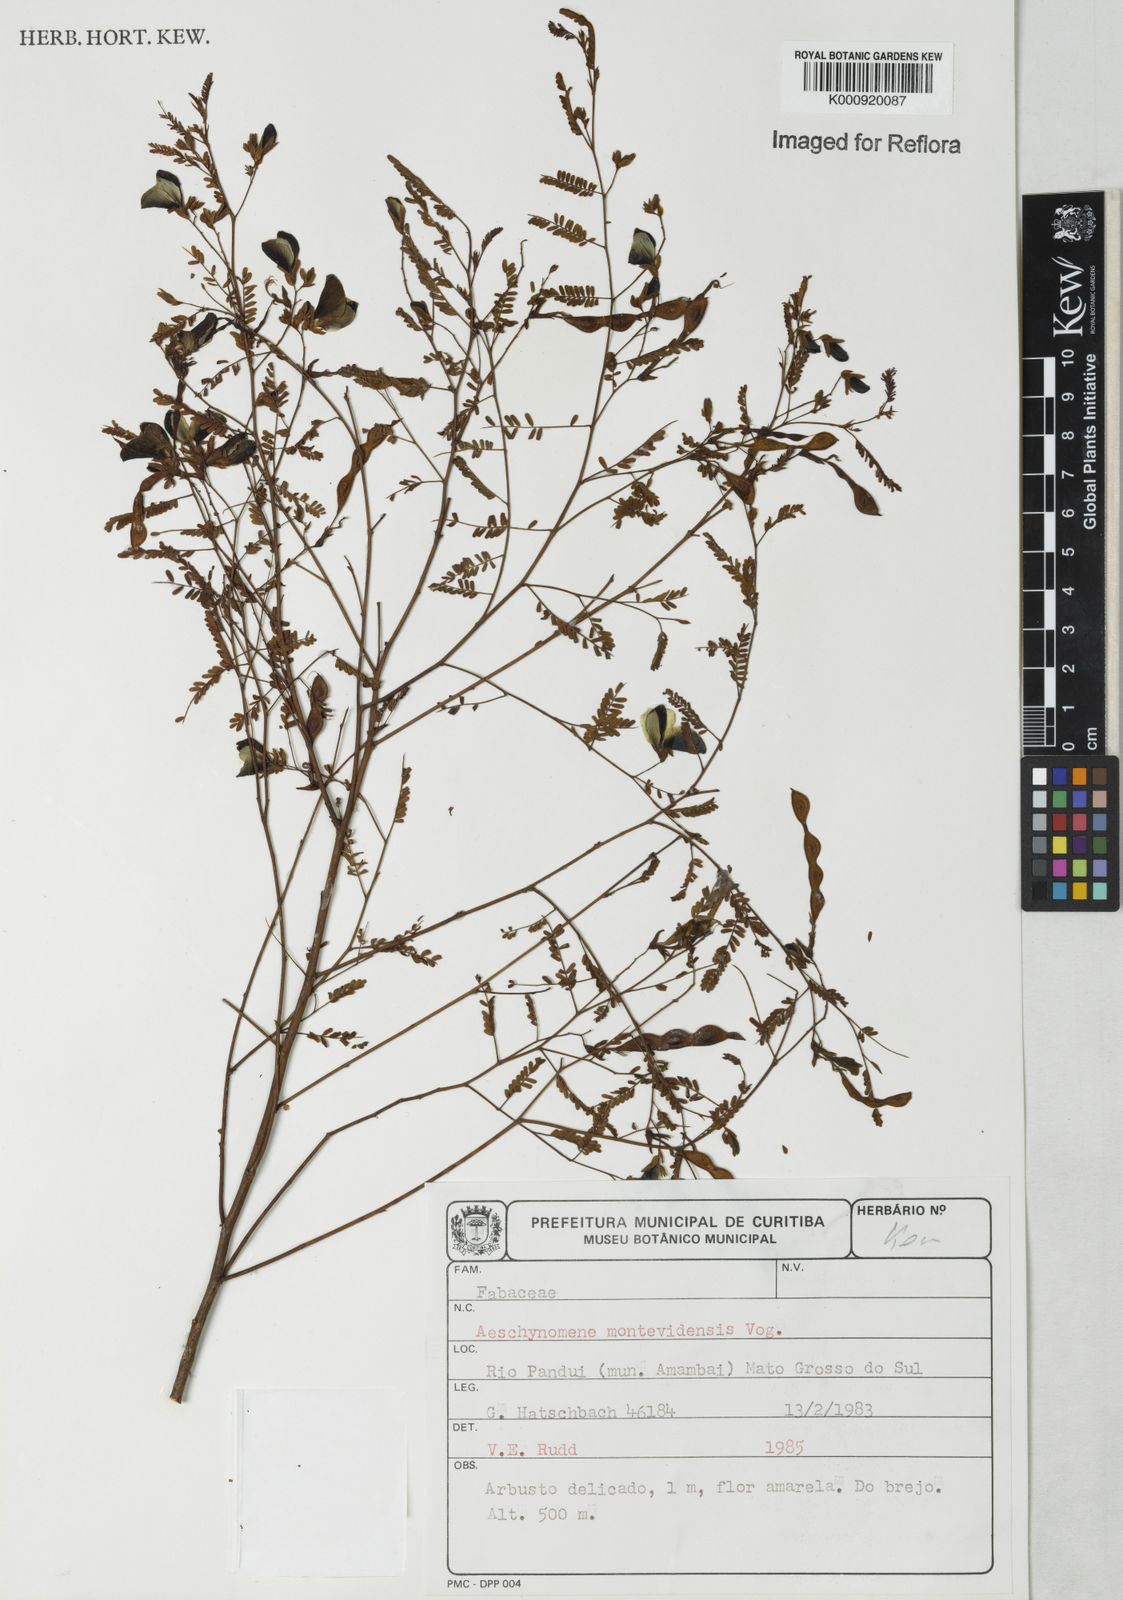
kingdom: Plantae
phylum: Tracheophyta
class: Magnoliopsida
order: Fabales
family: Fabaceae
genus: Aeschynomene
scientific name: Aeschynomene montevidensis
